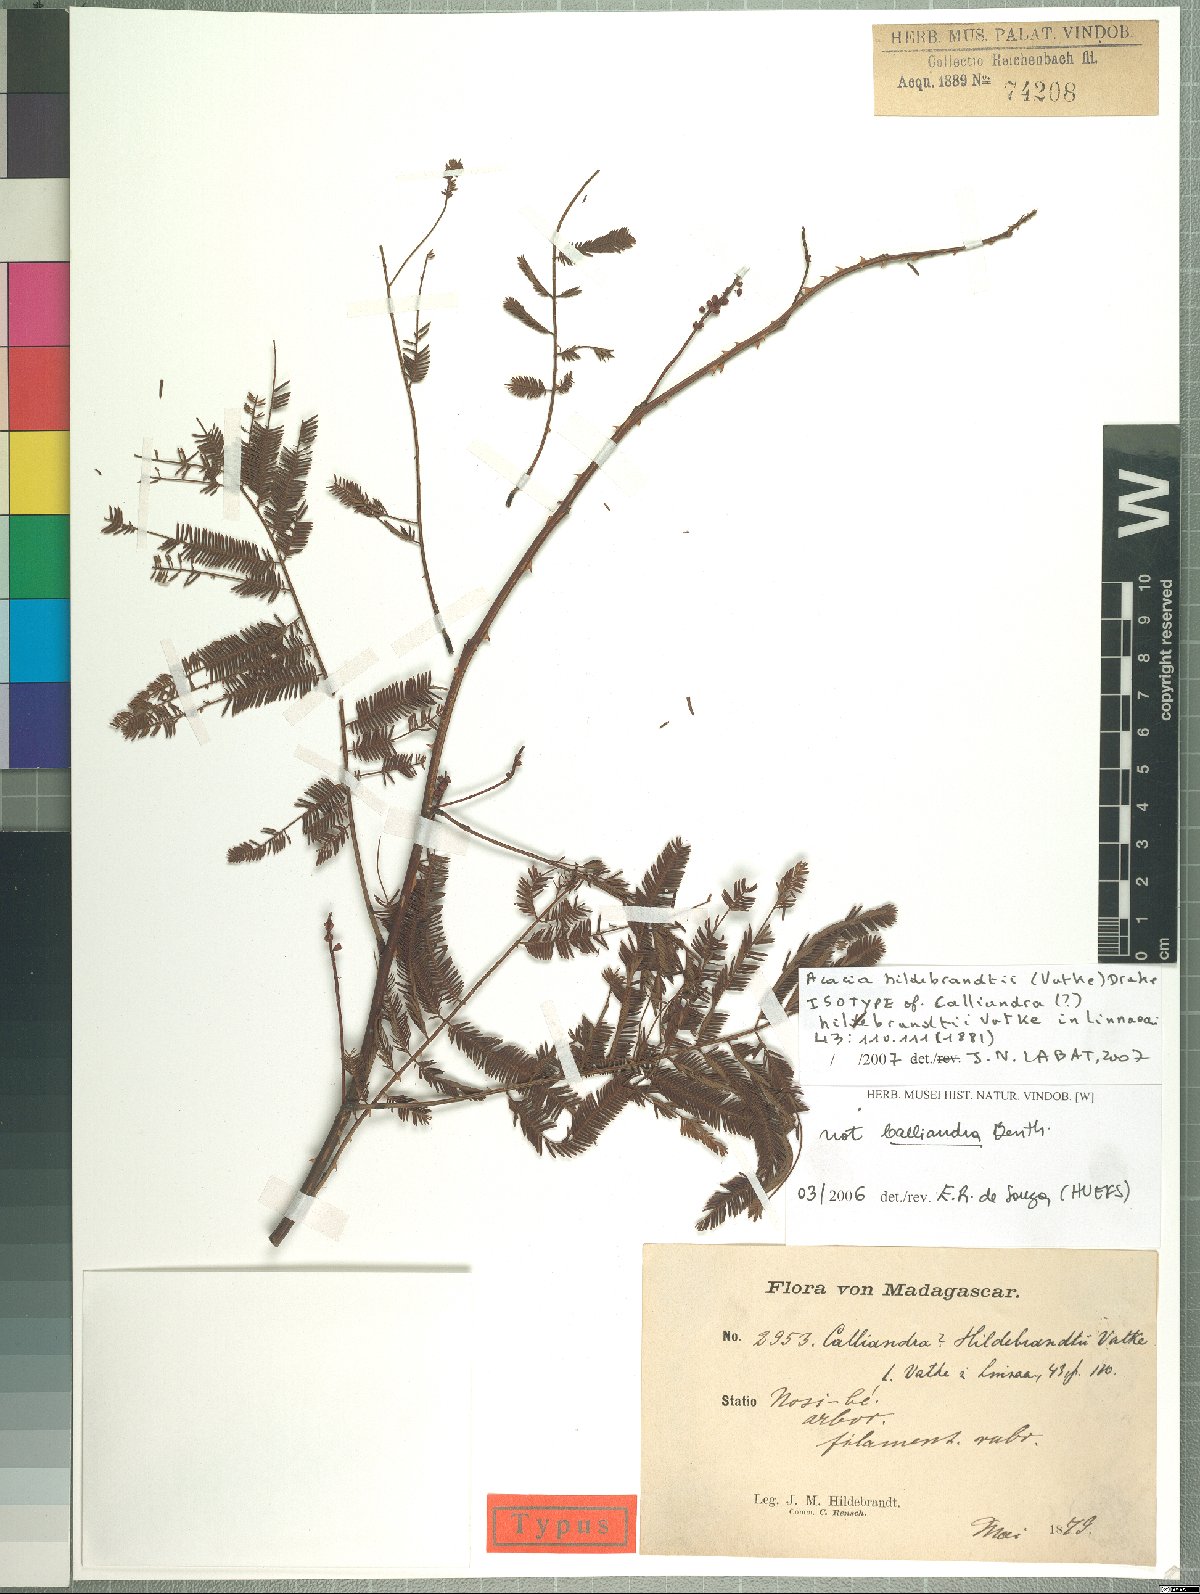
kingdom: Plantae
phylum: Tracheophyta
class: Magnoliopsida
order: Fabales
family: Fabaceae
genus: Senegalia
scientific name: Senegalia hildebrandtii
